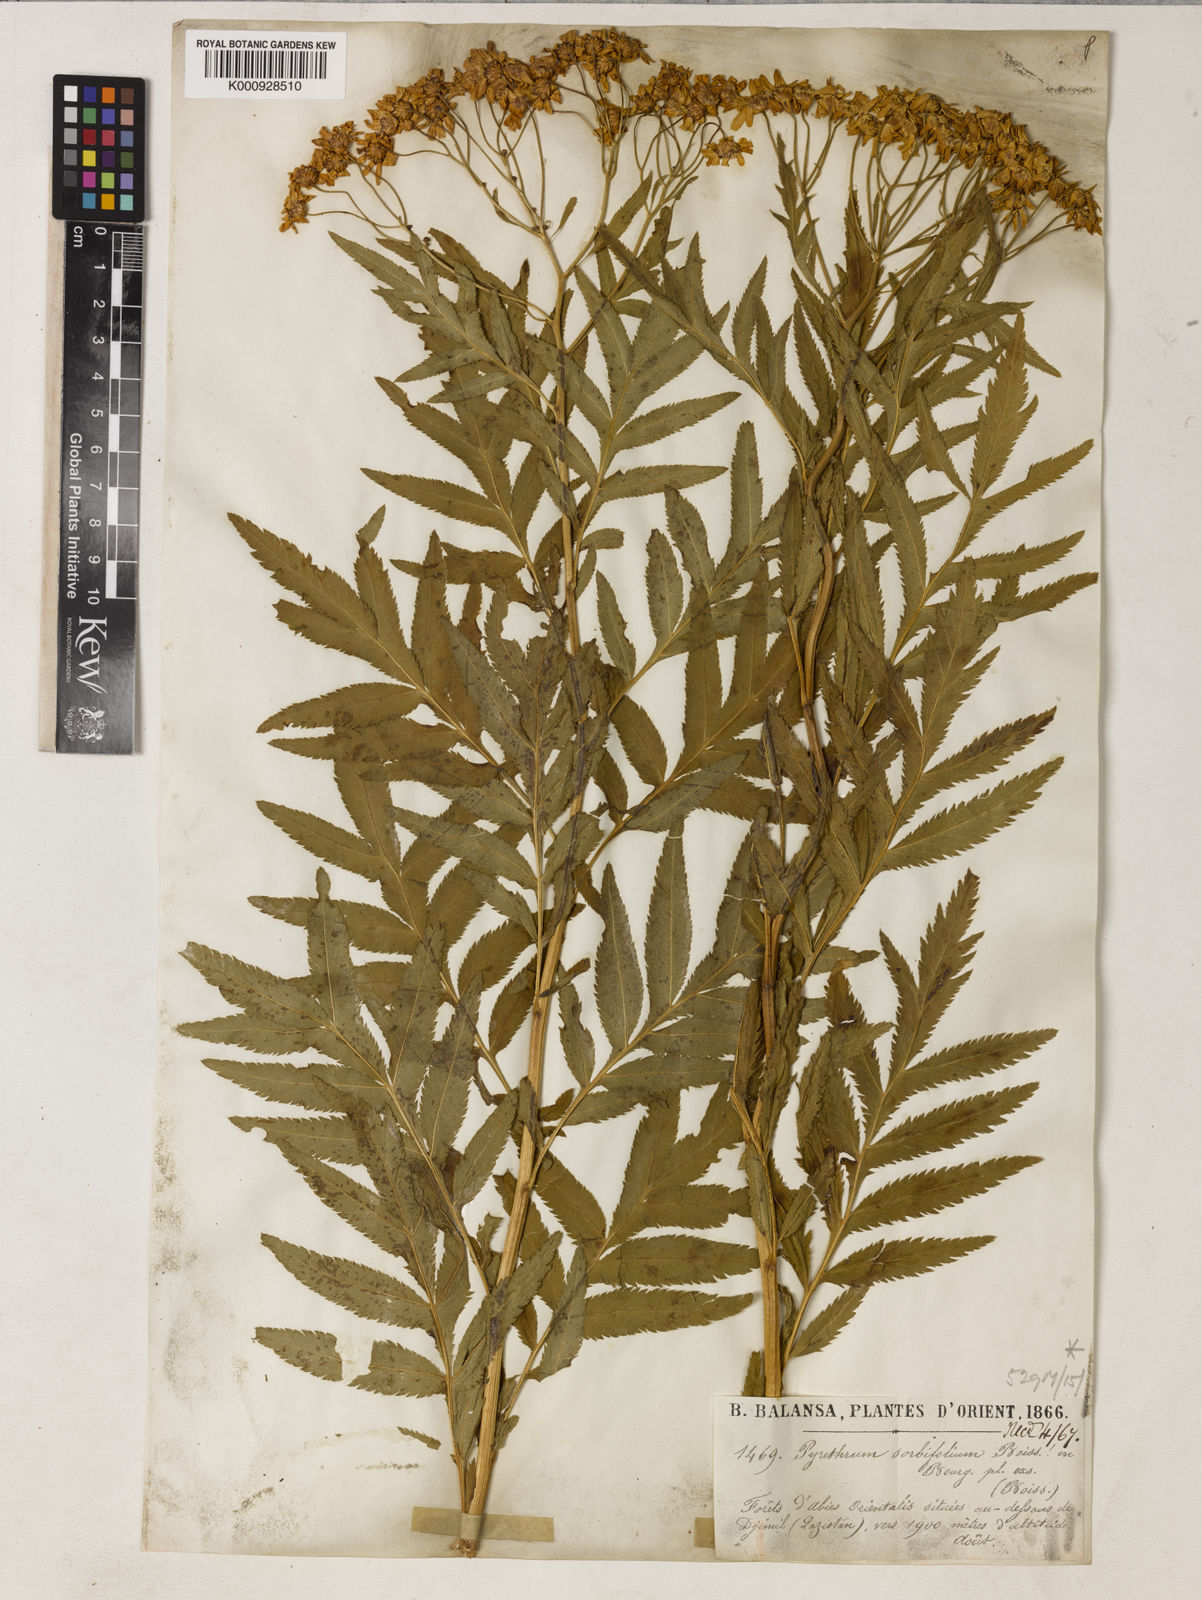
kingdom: Plantae
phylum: Tracheophyta
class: Magnoliopsida
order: Asterales
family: Asteraceae
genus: Tanacetum
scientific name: Tanacetum sorbifolium
